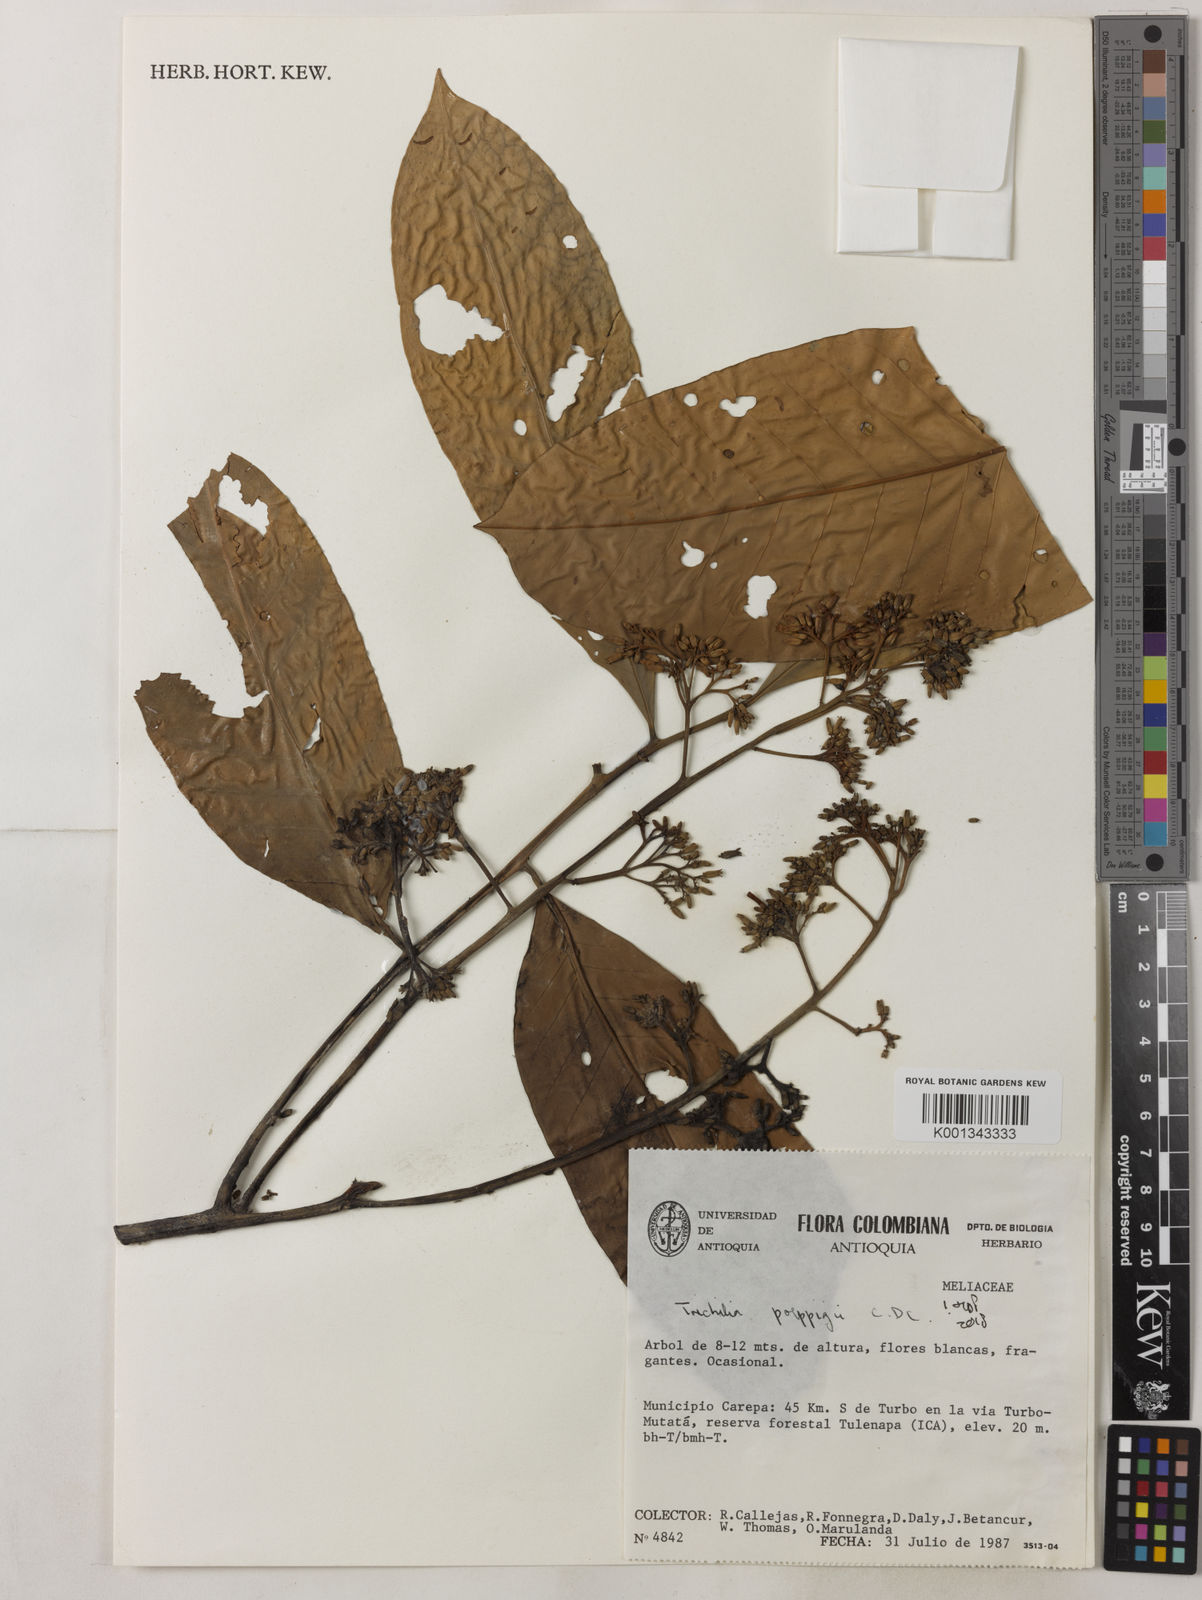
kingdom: Plantae
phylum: Tracheophyta
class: Magnoliopsida
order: Sapindales
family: Meliaceae
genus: Trichilia
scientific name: Trichilia
